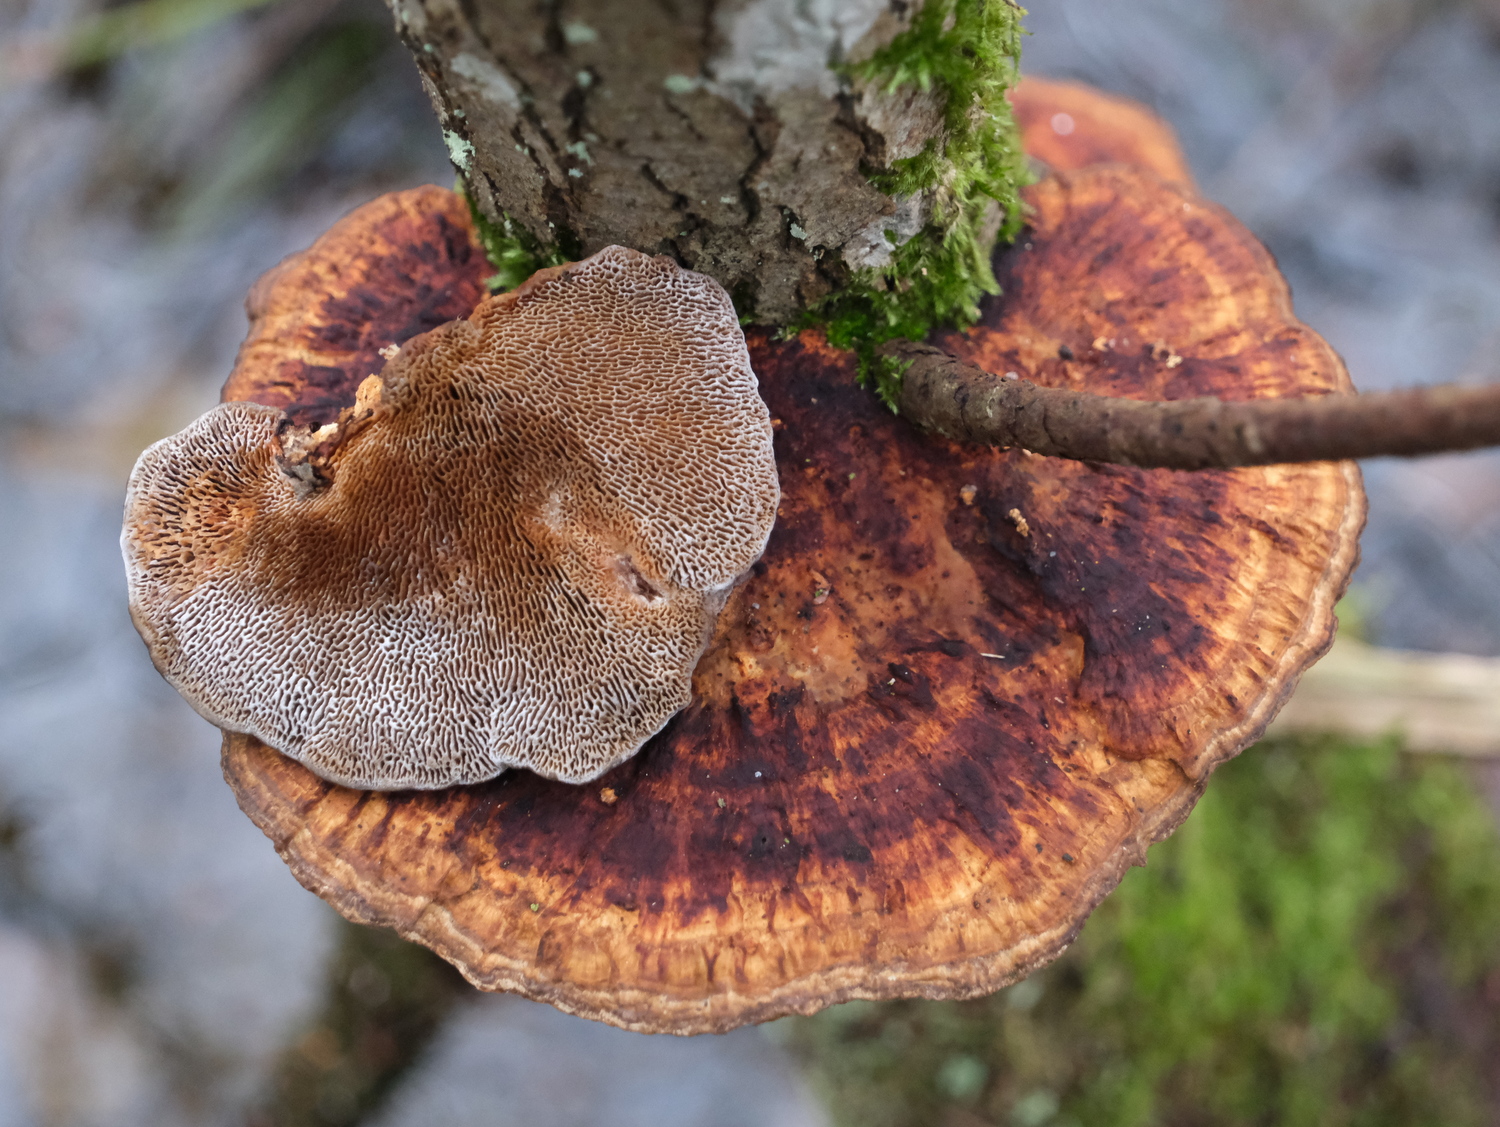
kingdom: Fungi
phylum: Basidiomycota
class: Agaricomycetes
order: Polyporales
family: Polyporaceae
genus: Daedaleopsis
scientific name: Daedaleopsis confragosa
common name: rødmende læderporesvamp
